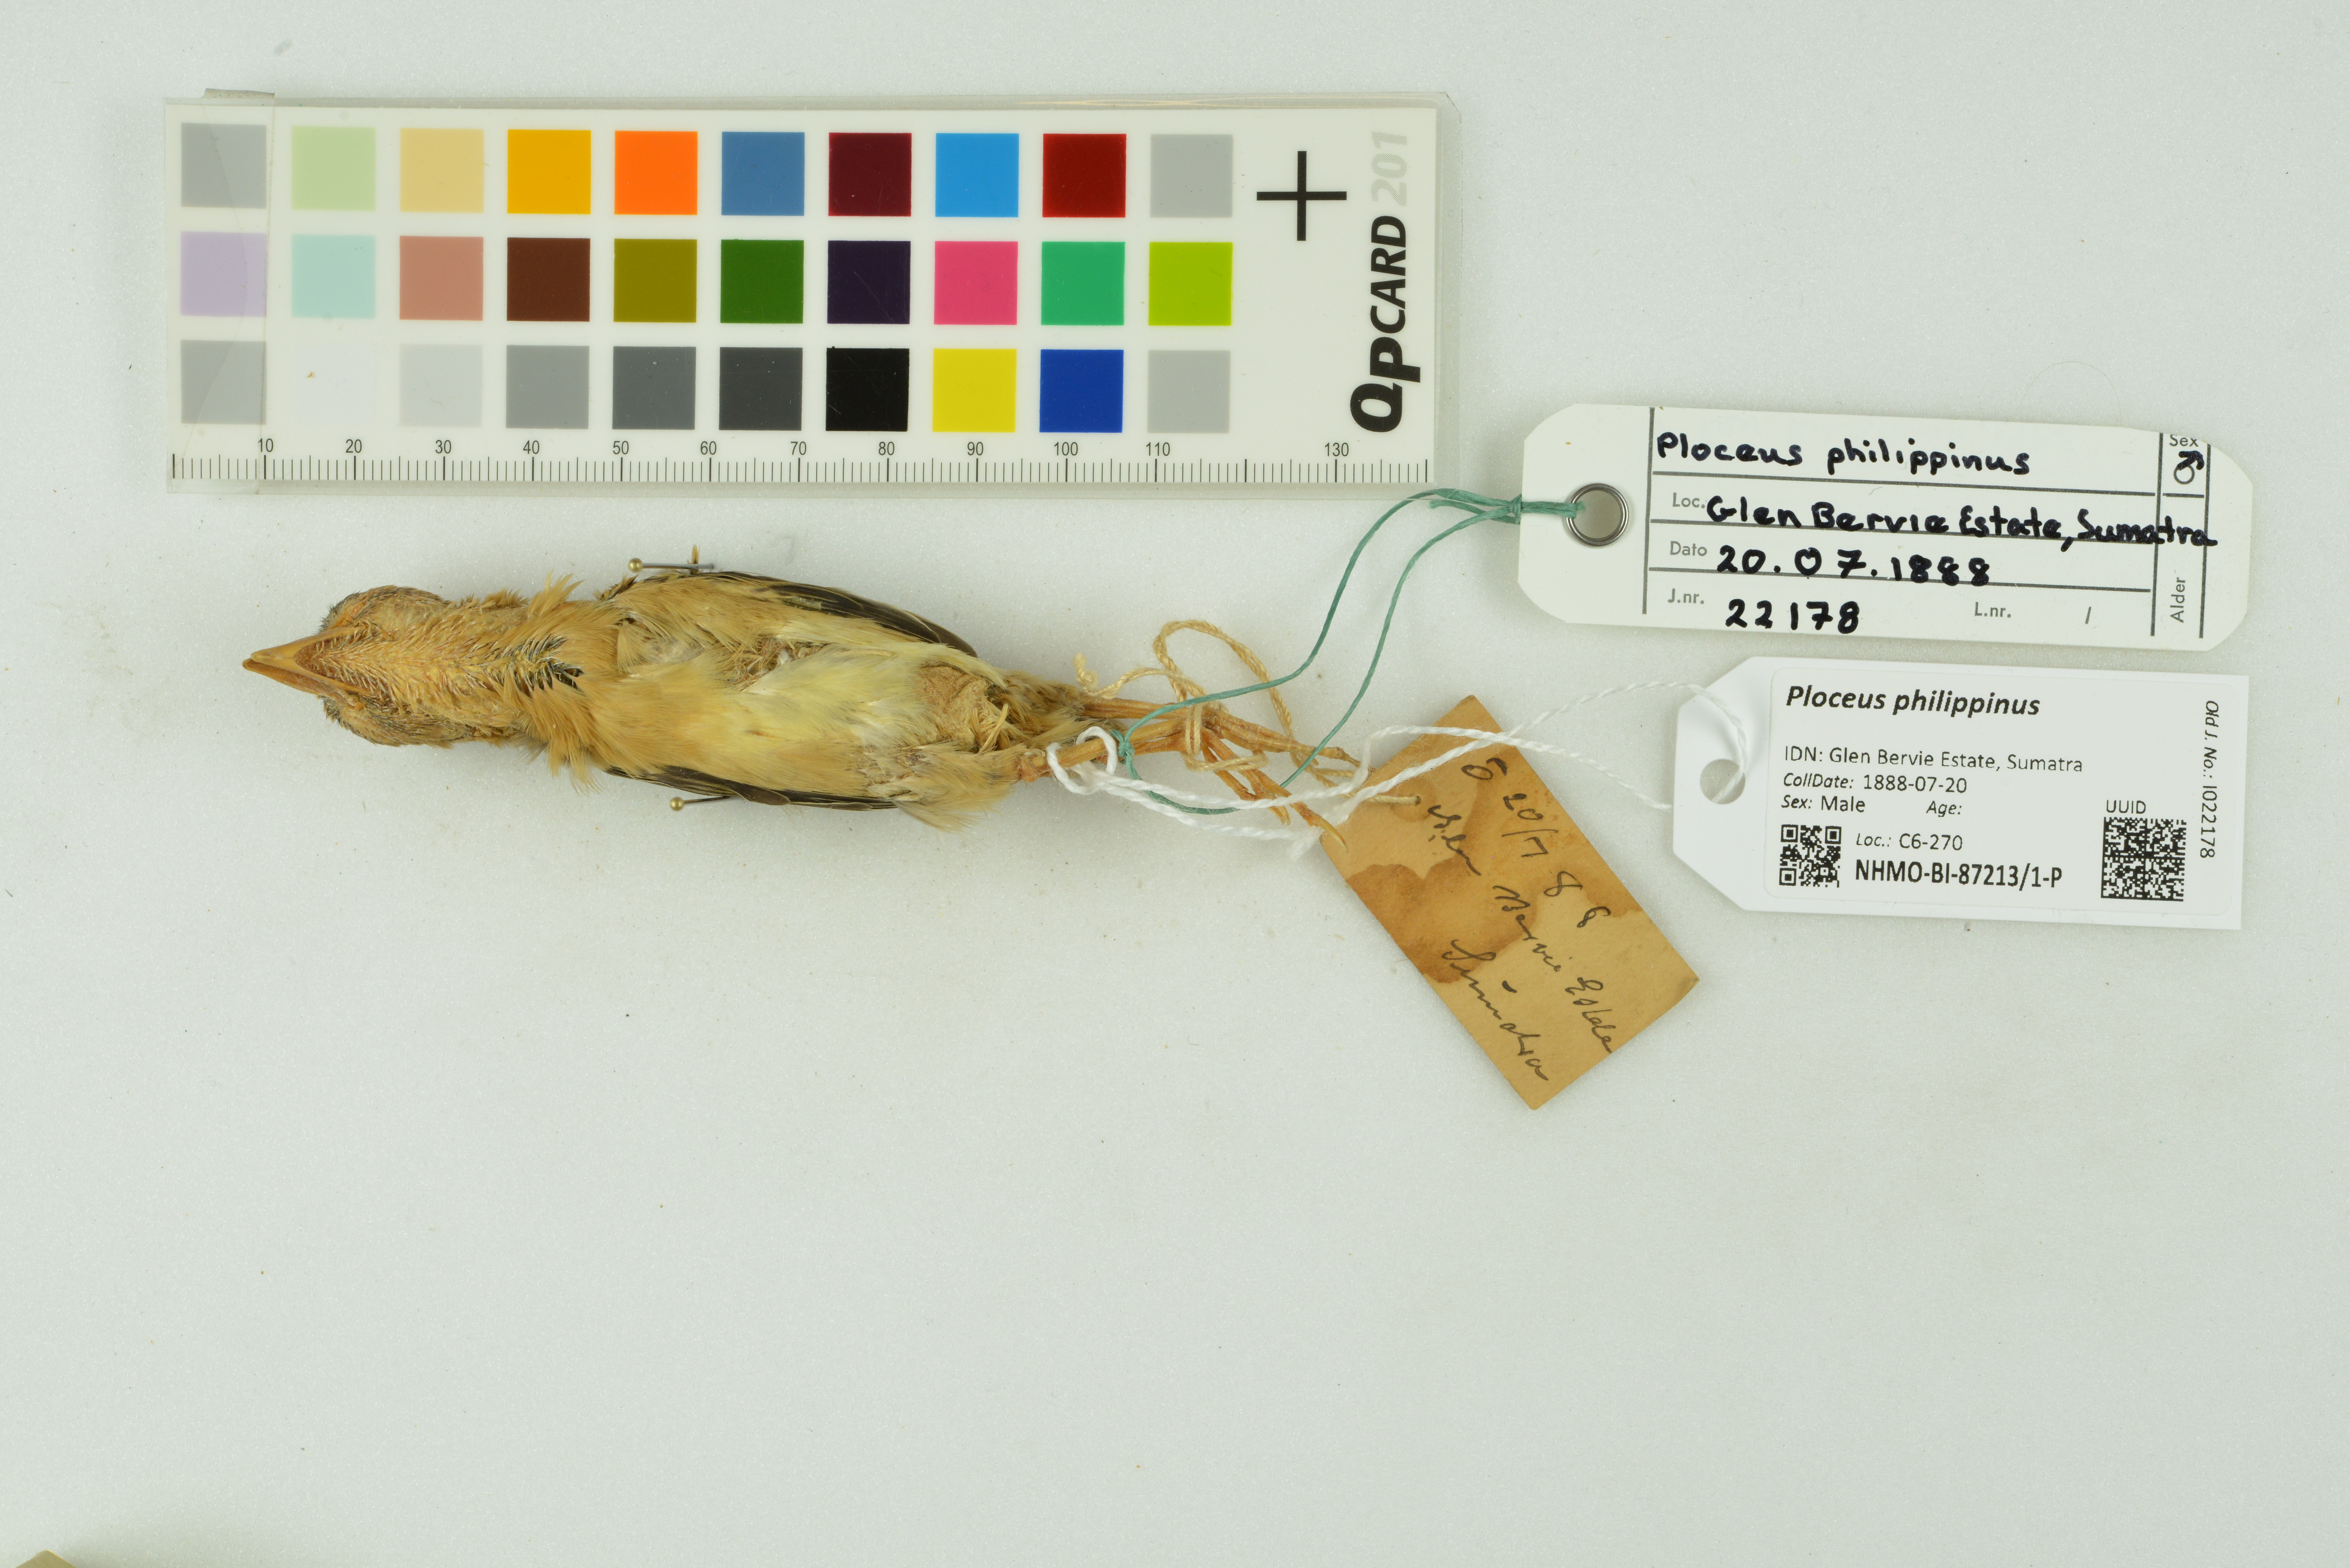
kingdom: Animalia
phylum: Chordata
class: Aves
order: Passeriformes
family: Ploceidae
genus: Ploceus
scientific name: Ploceus philippinus
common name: Baya weaver
